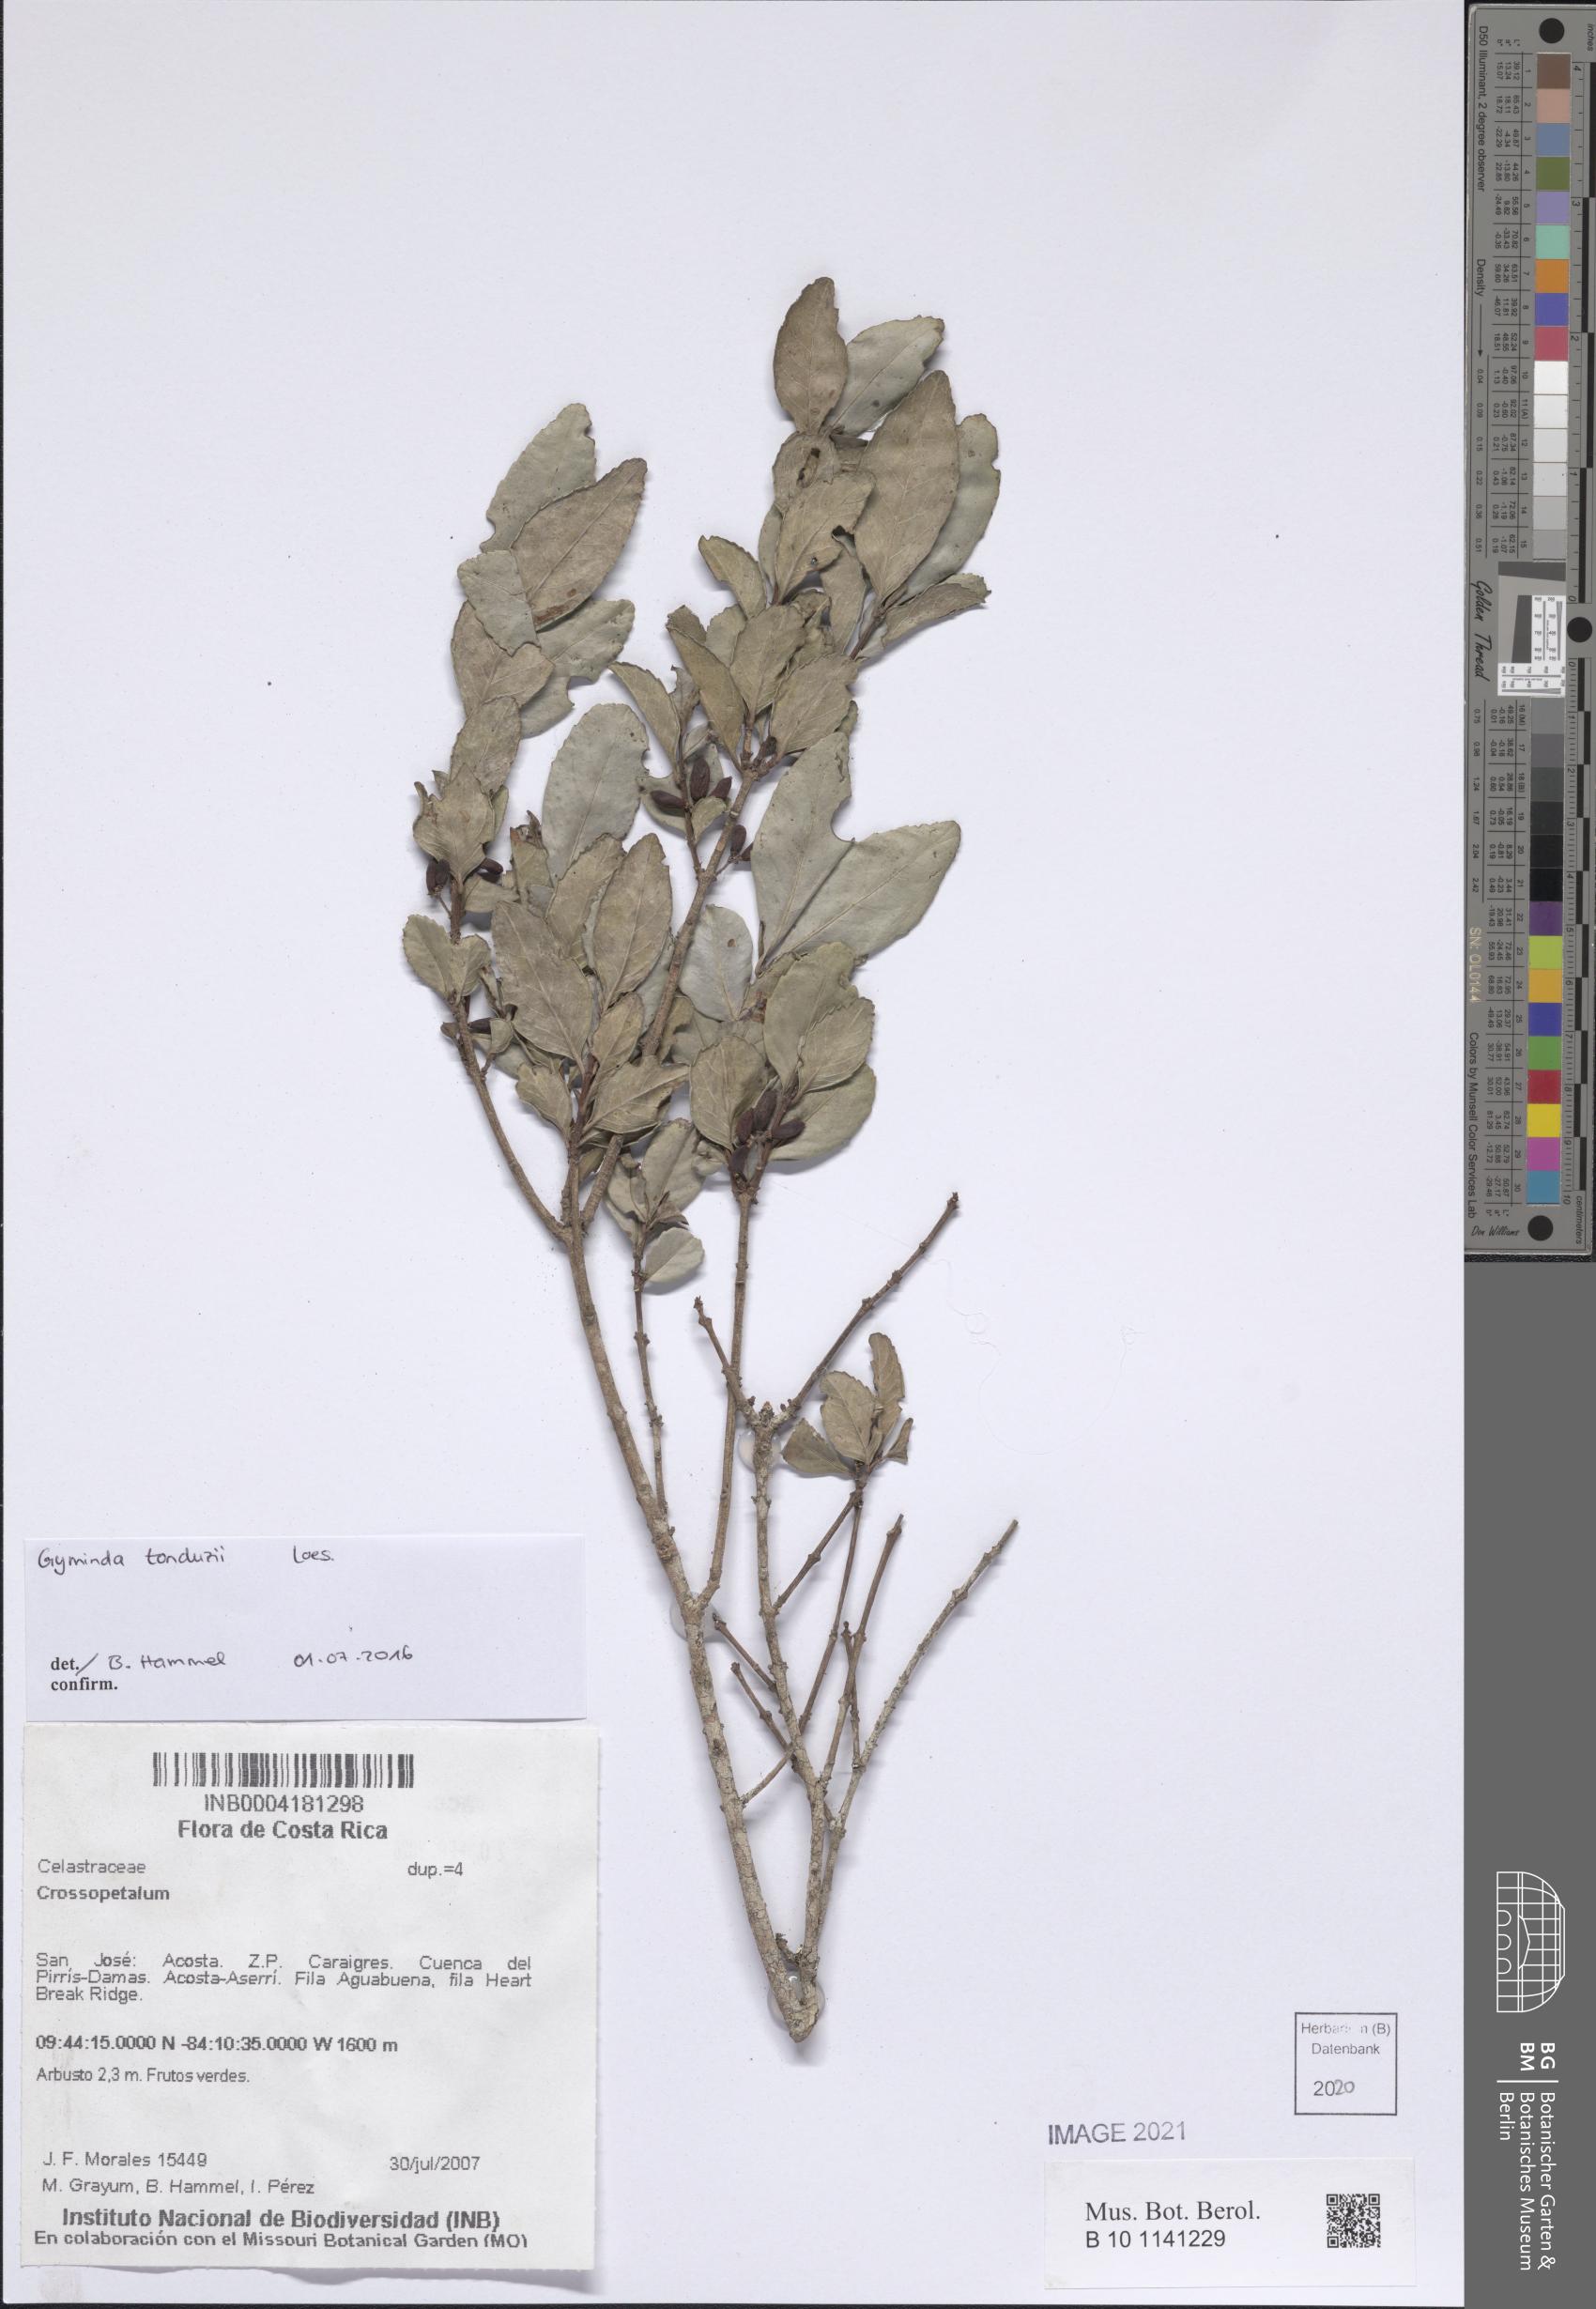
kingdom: Plantae
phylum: Tracheophyta
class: Magnoliopsida
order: Celastrales
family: Celastraceae
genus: Crossopetalum
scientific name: Crossopetalum
